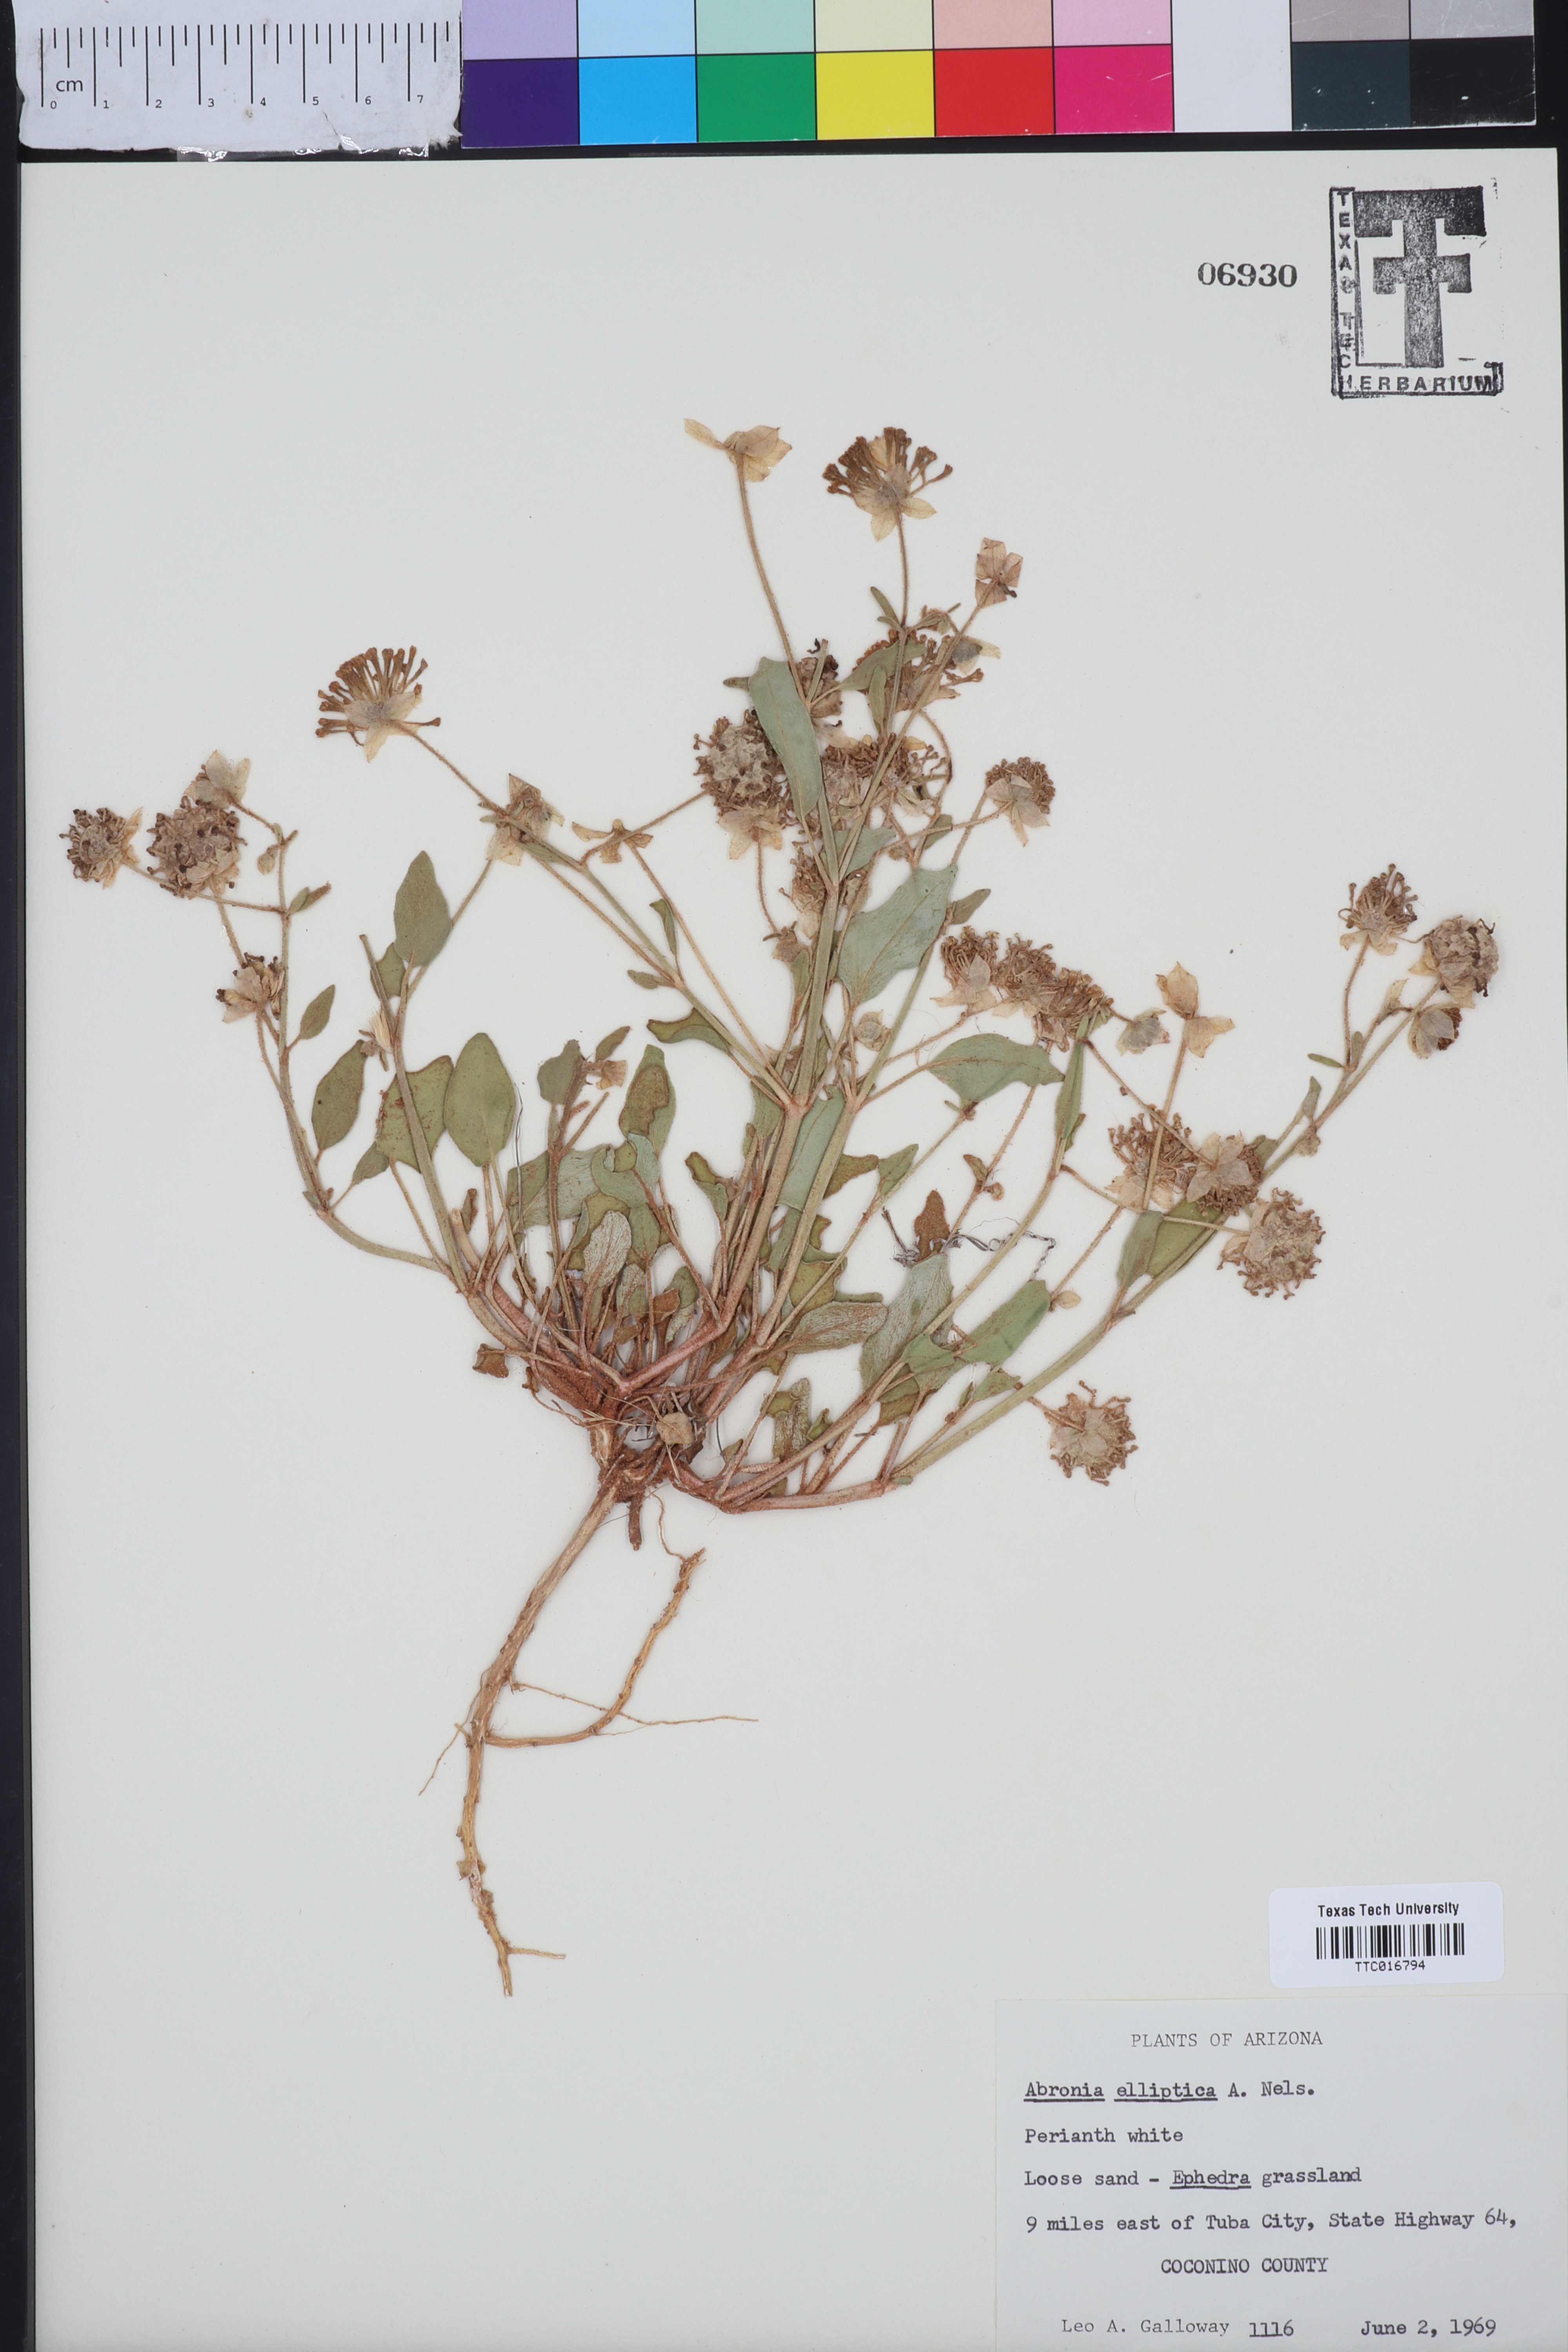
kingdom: Plantae
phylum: Tracheophyta
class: Magnoliopsida
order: Caryophyllales
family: Nyctaginaceae
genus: Abronia
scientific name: Abronia elliptica
